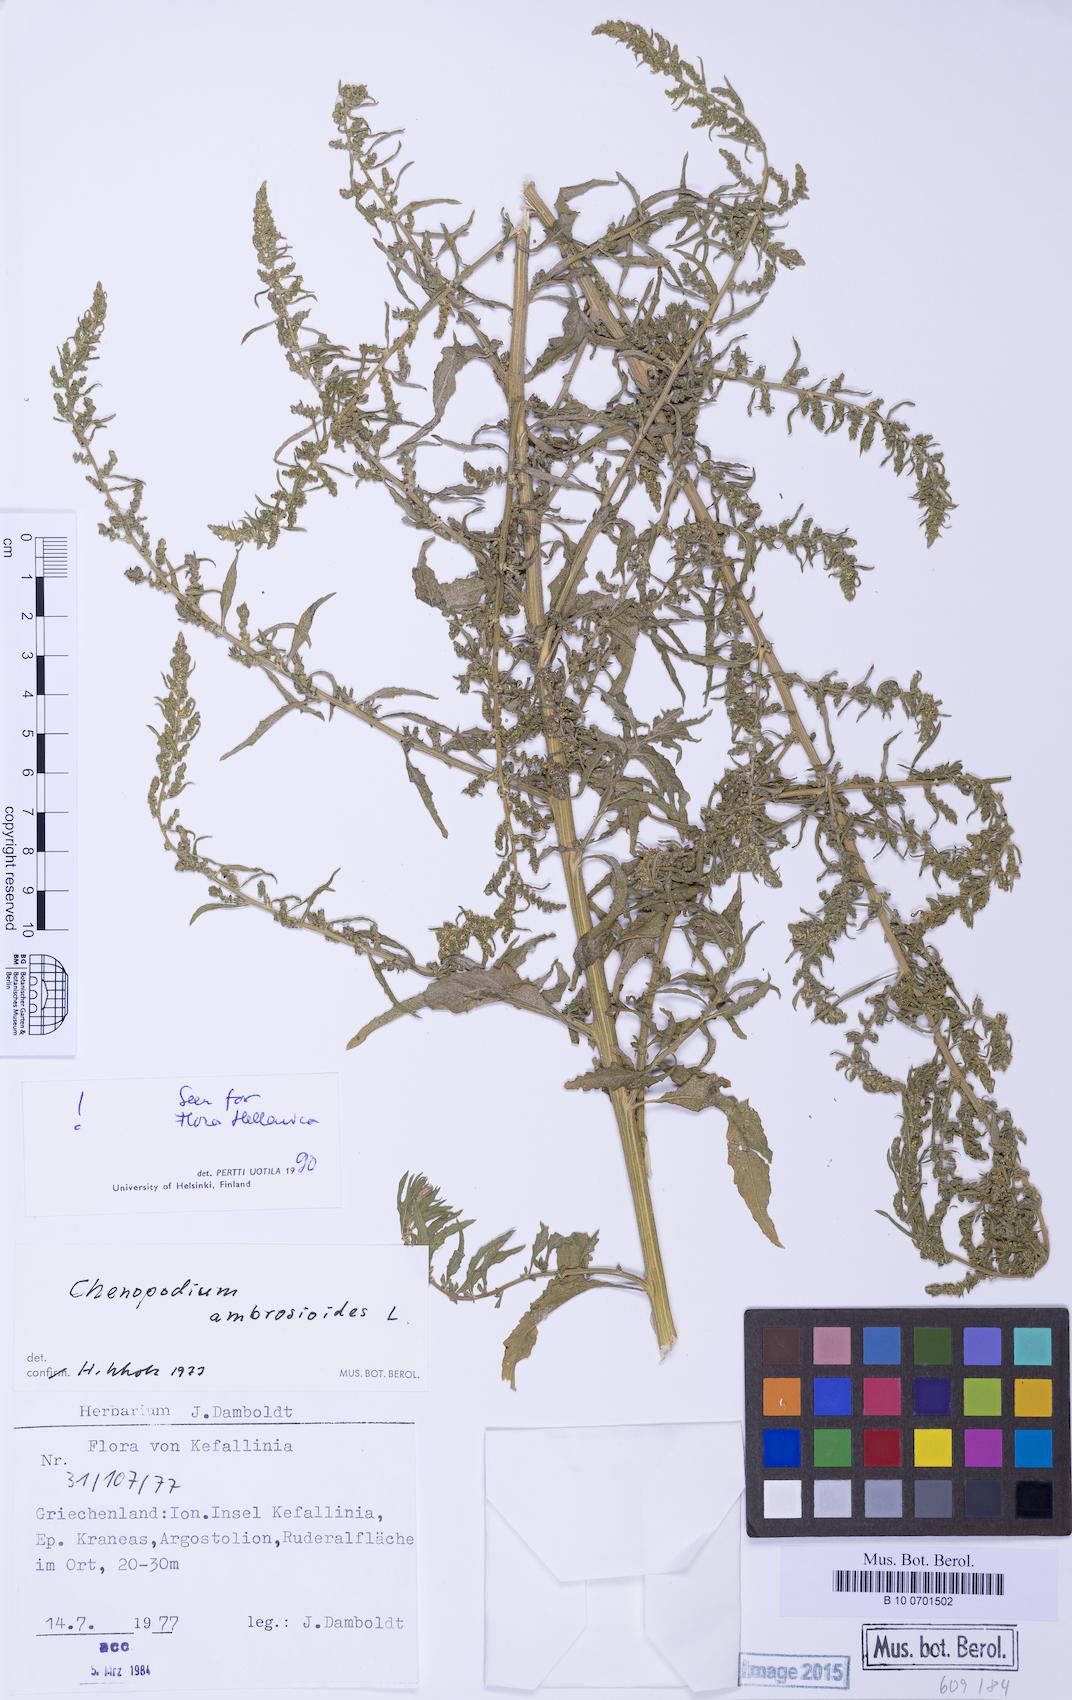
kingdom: Plantae
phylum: Tracheophyta
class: Magnoliopsida
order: Caryophyllales
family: Amaranthaceae
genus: Dysphania
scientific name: Dysphania ambrosioides
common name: Wormseed
